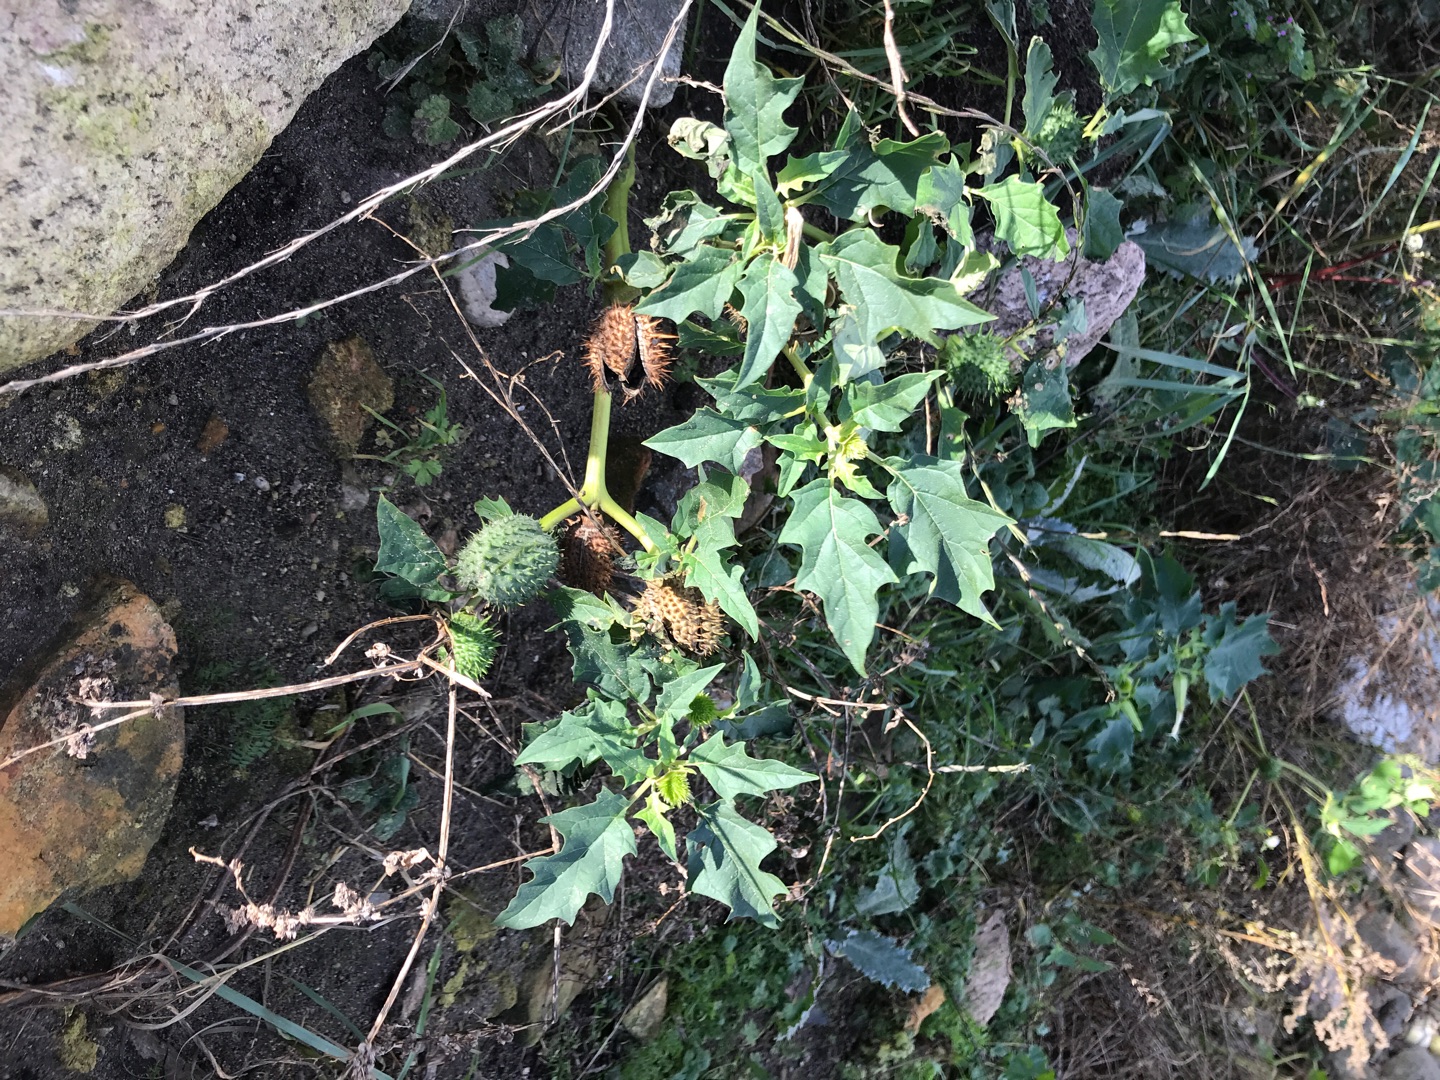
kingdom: Plantae
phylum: Tracheophyta
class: Magnoliopsida
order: Solanales
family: Solanaceae
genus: Datura
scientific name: Datura stramonium
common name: Pigæble
